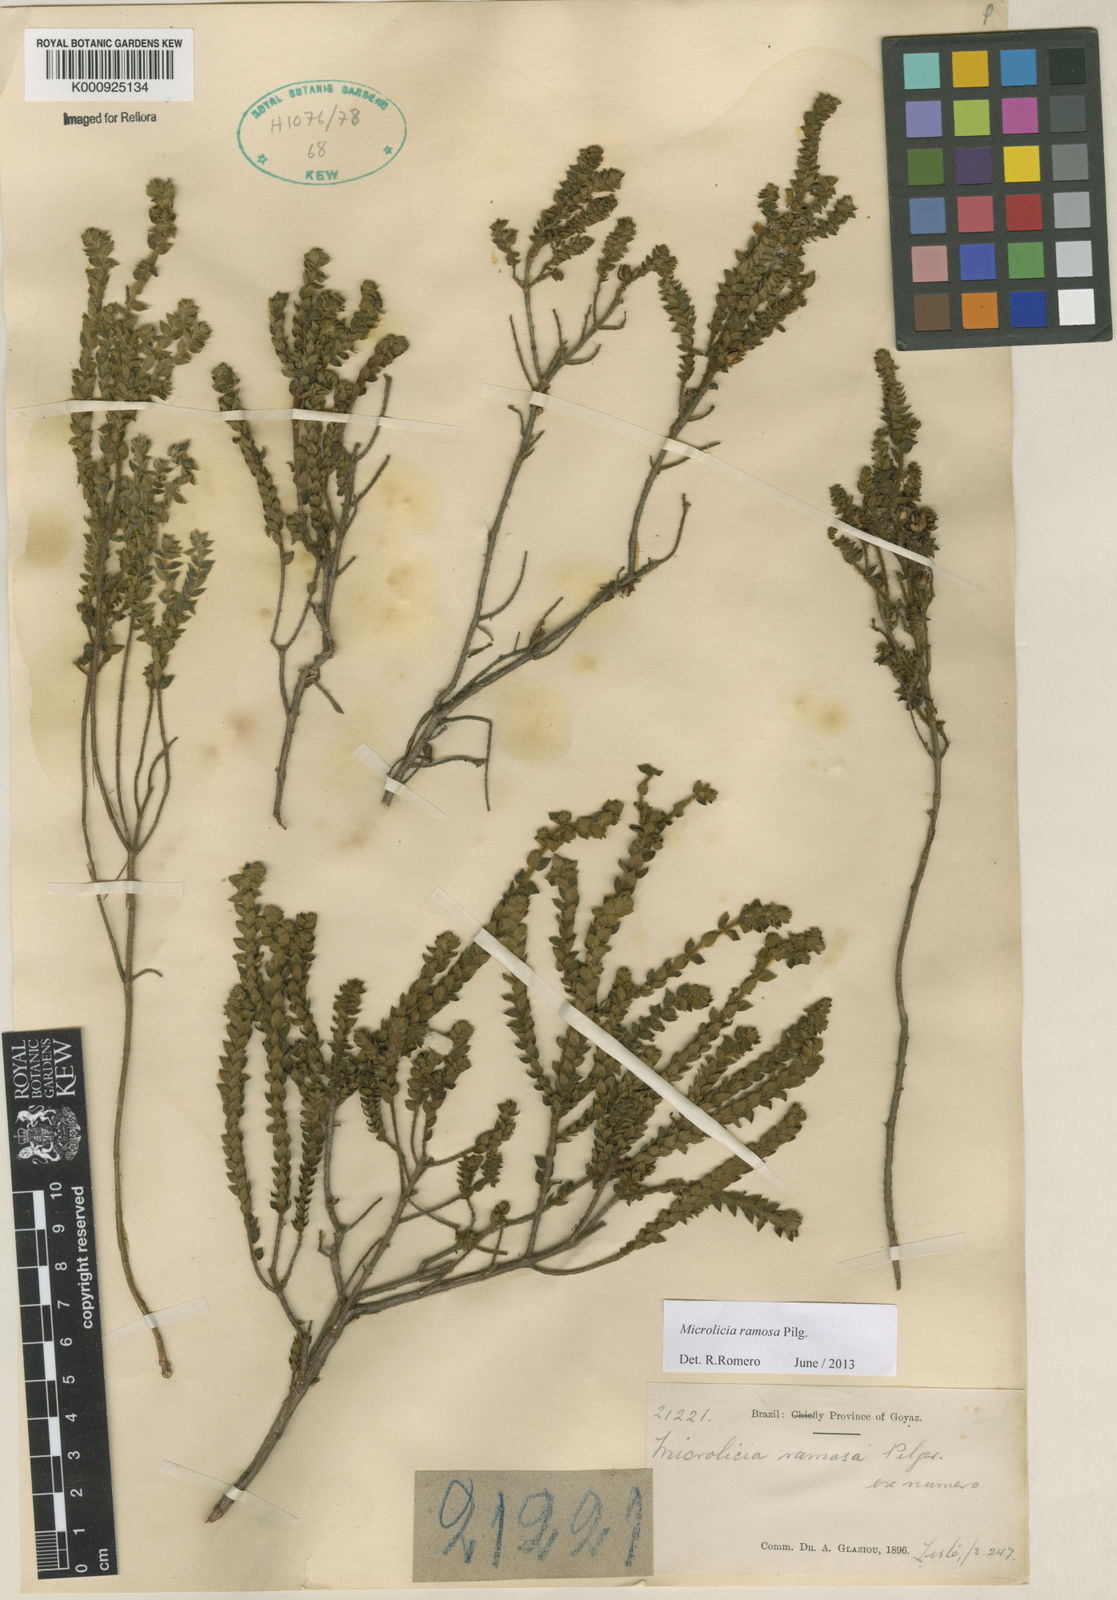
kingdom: Plantae
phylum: Tracheophyta
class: Magnoliopsida
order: Myrtales
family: Melastomataceae
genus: Microlicia
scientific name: Microlicia ramosa
